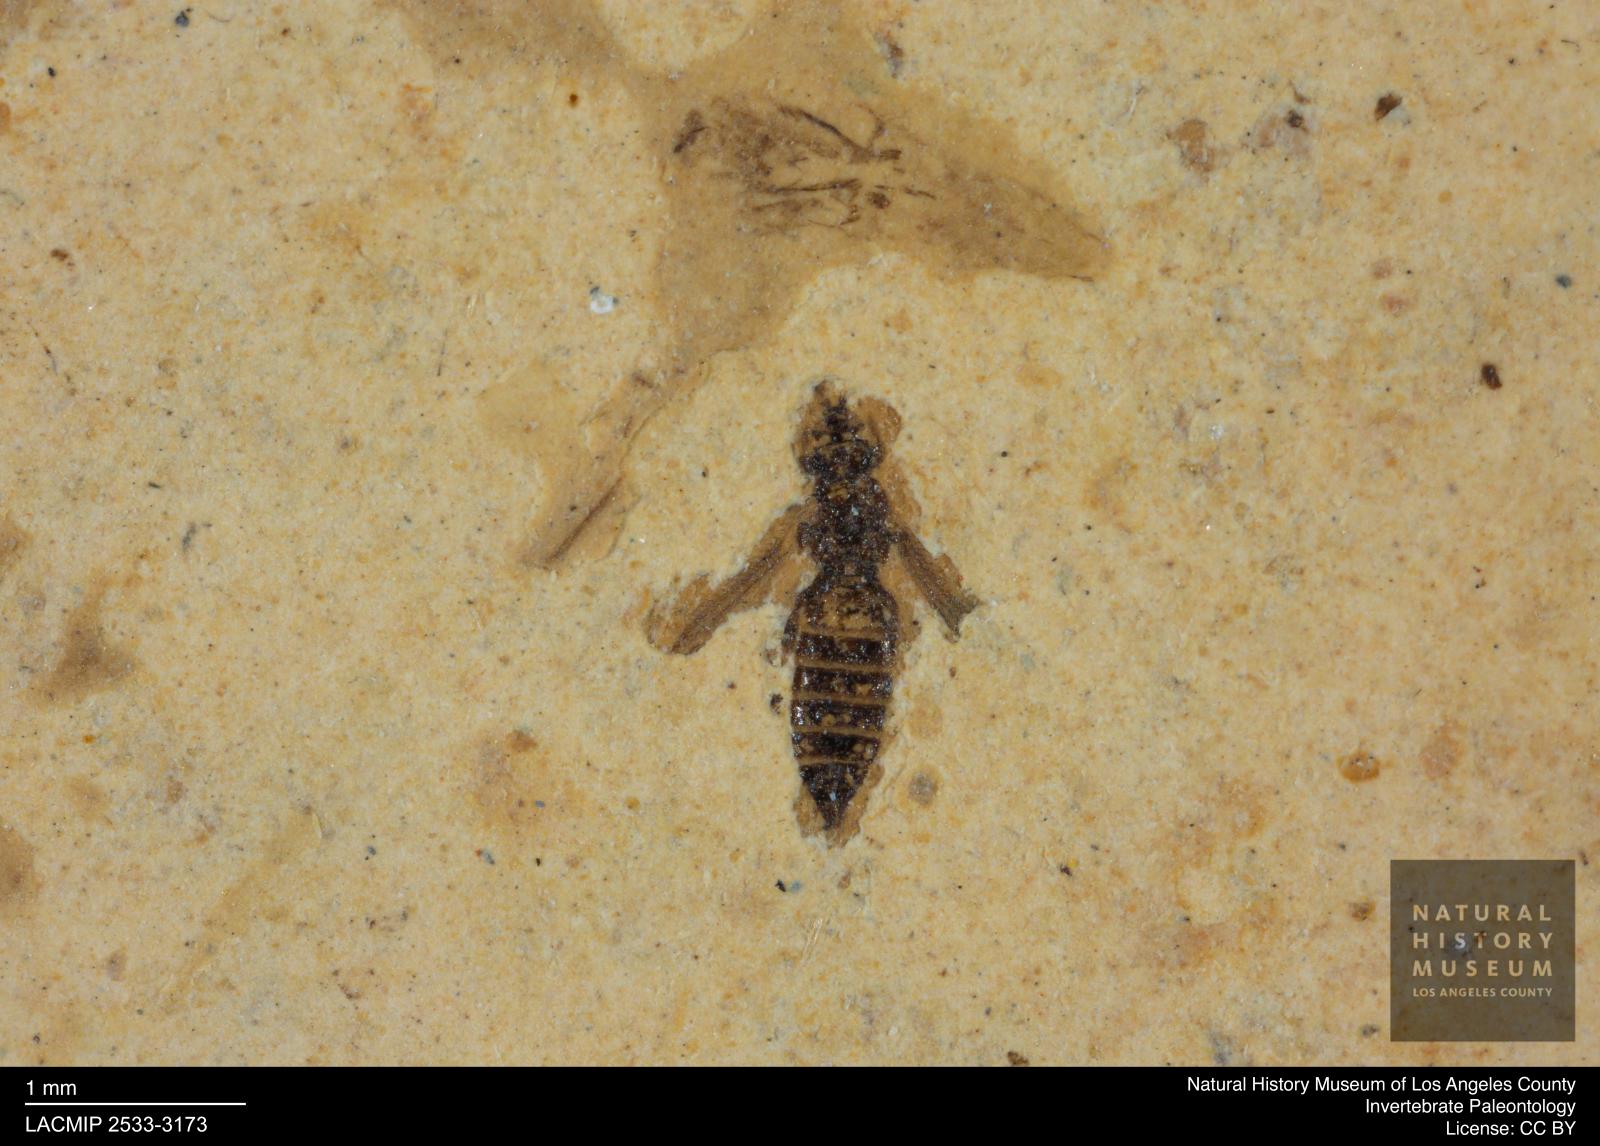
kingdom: Animalia
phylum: Arthropoda
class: Insecta
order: Thysanoptera
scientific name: Thysanoptera
